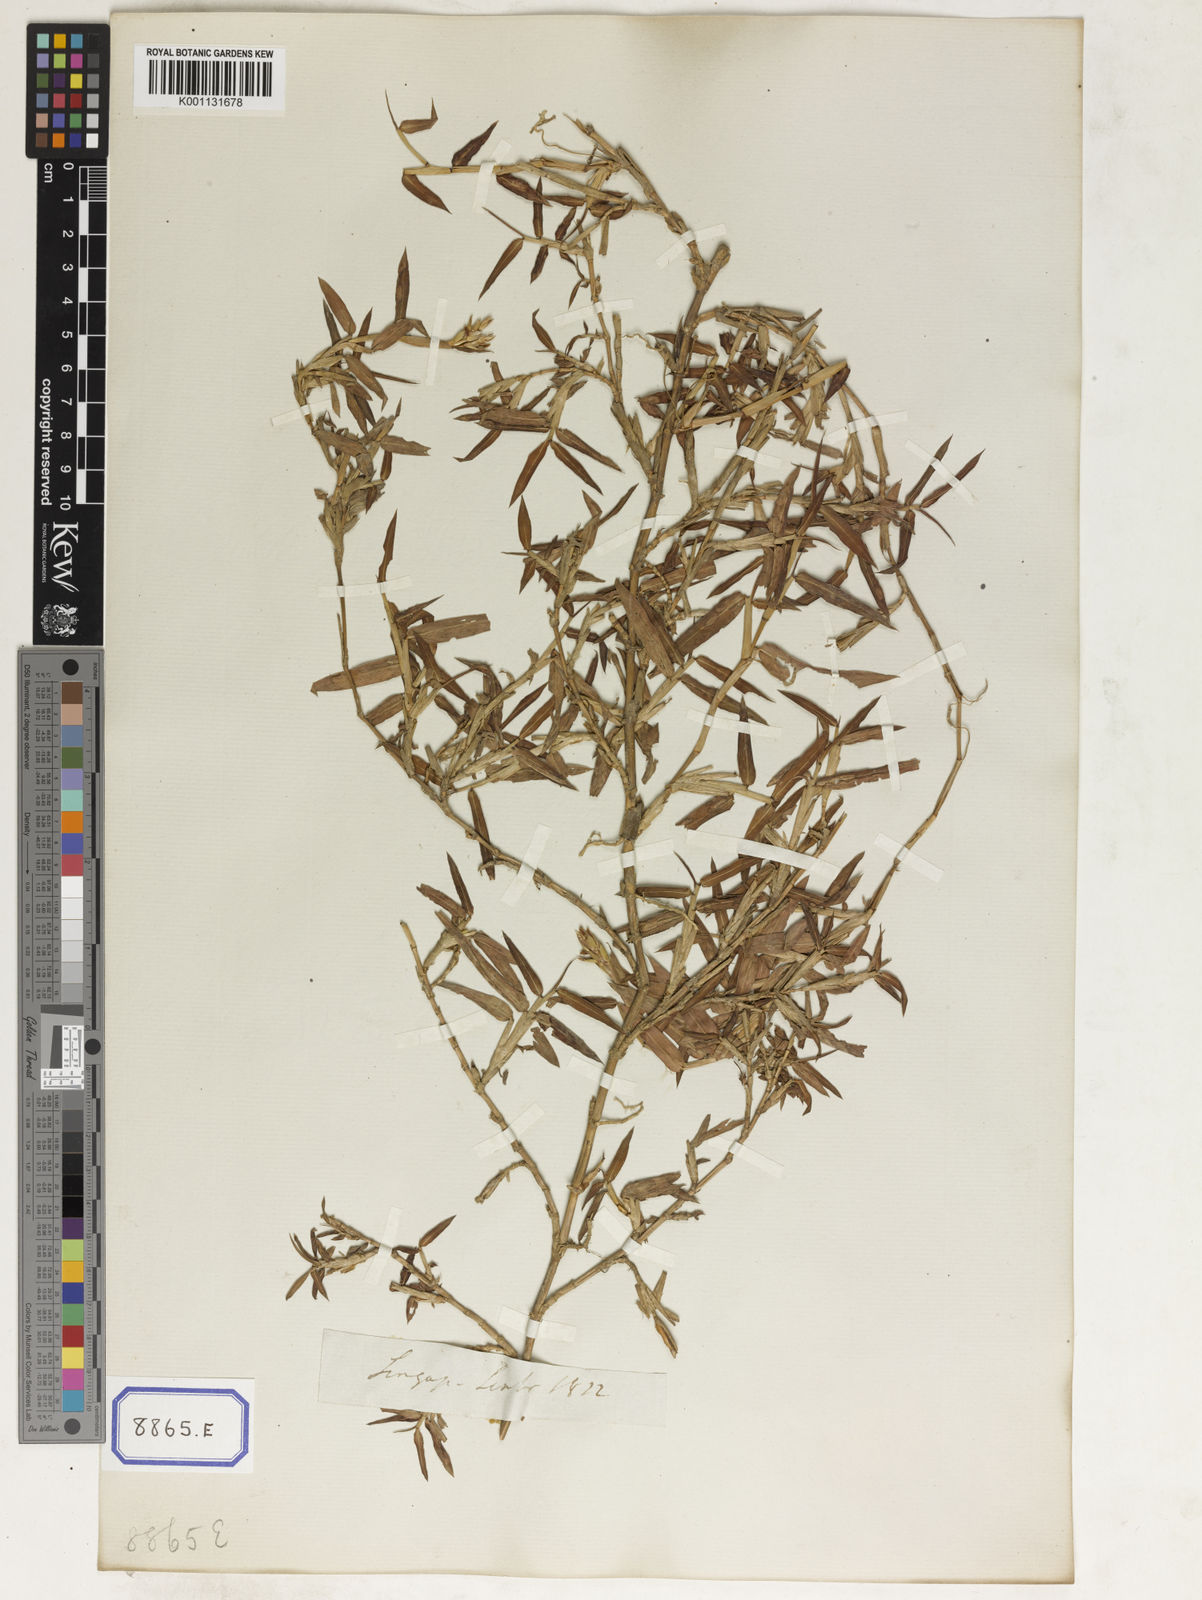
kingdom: Plantae
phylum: Tracheophyta
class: Liliopsida
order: Poales
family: Poaceae
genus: Ischaemum
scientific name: Ischaemum muticum
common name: Drought grass
